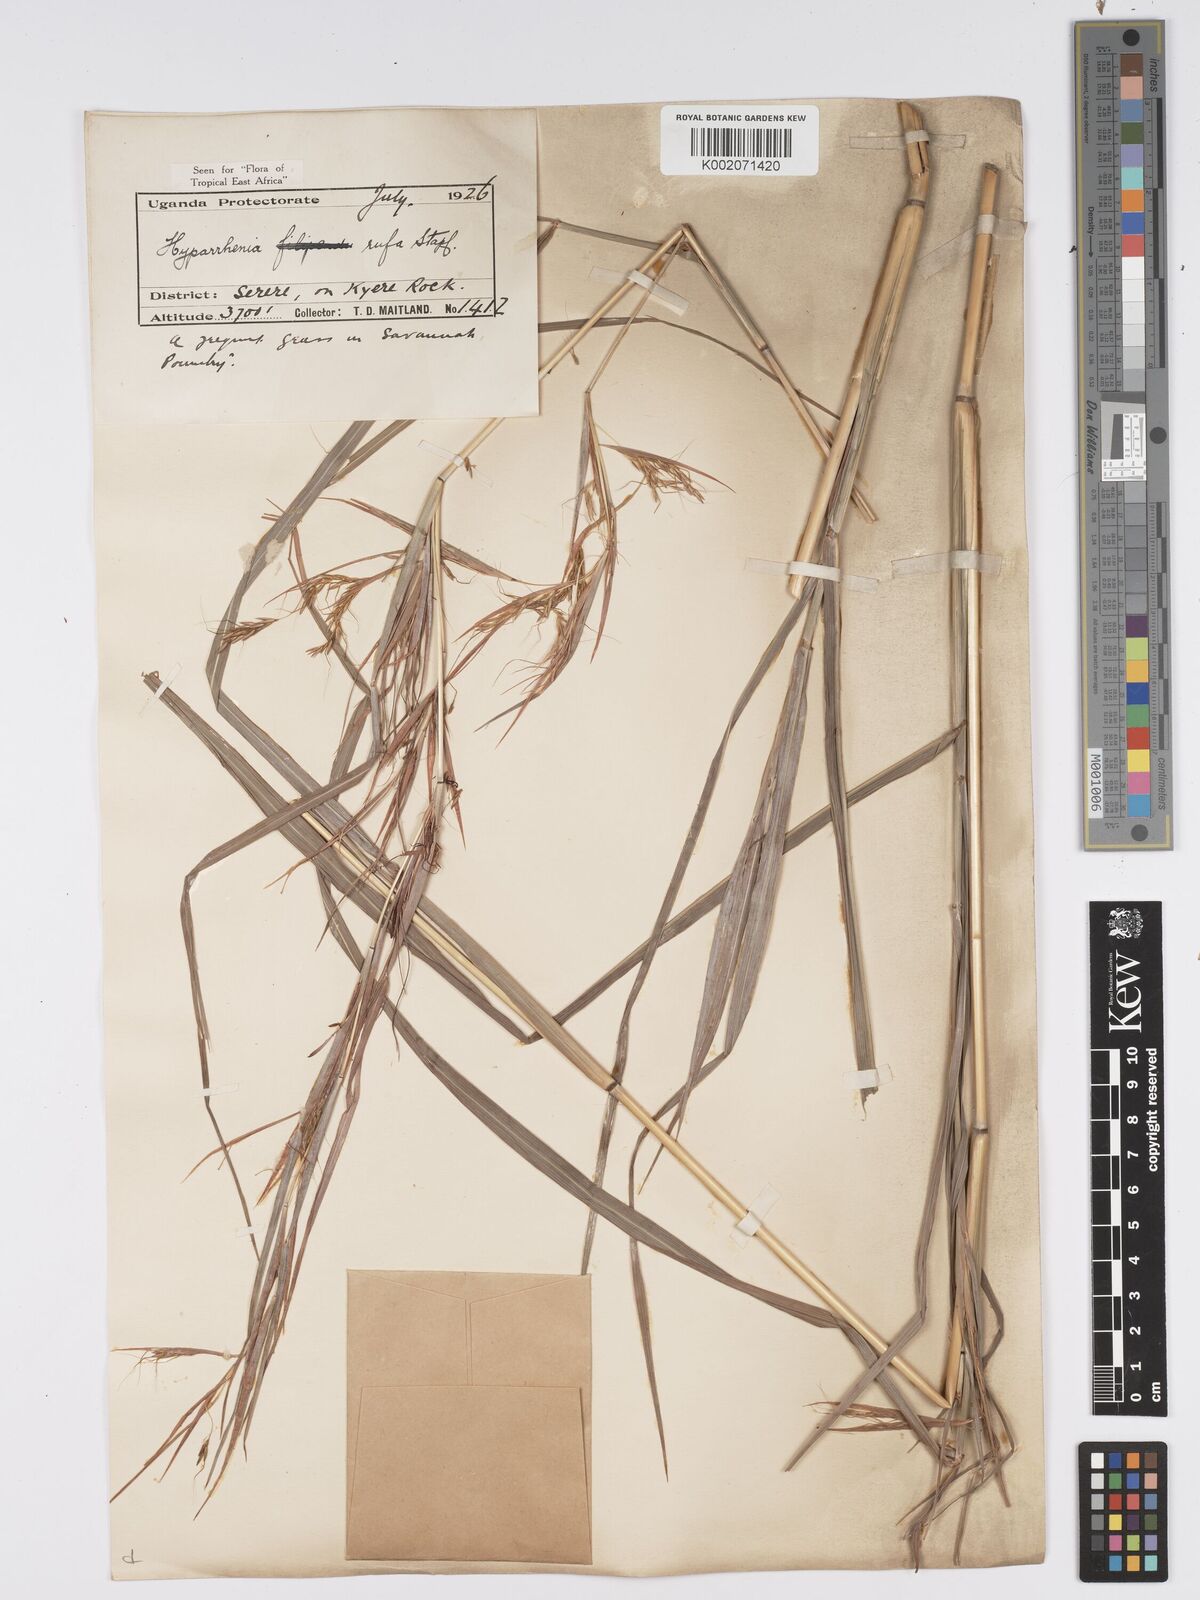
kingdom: Plantae
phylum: Tracheophyta
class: Liliopsida
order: Poales
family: Poaceae
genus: Hyparrhenia
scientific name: Hyparrhenia rufa
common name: Jaraguagrass
